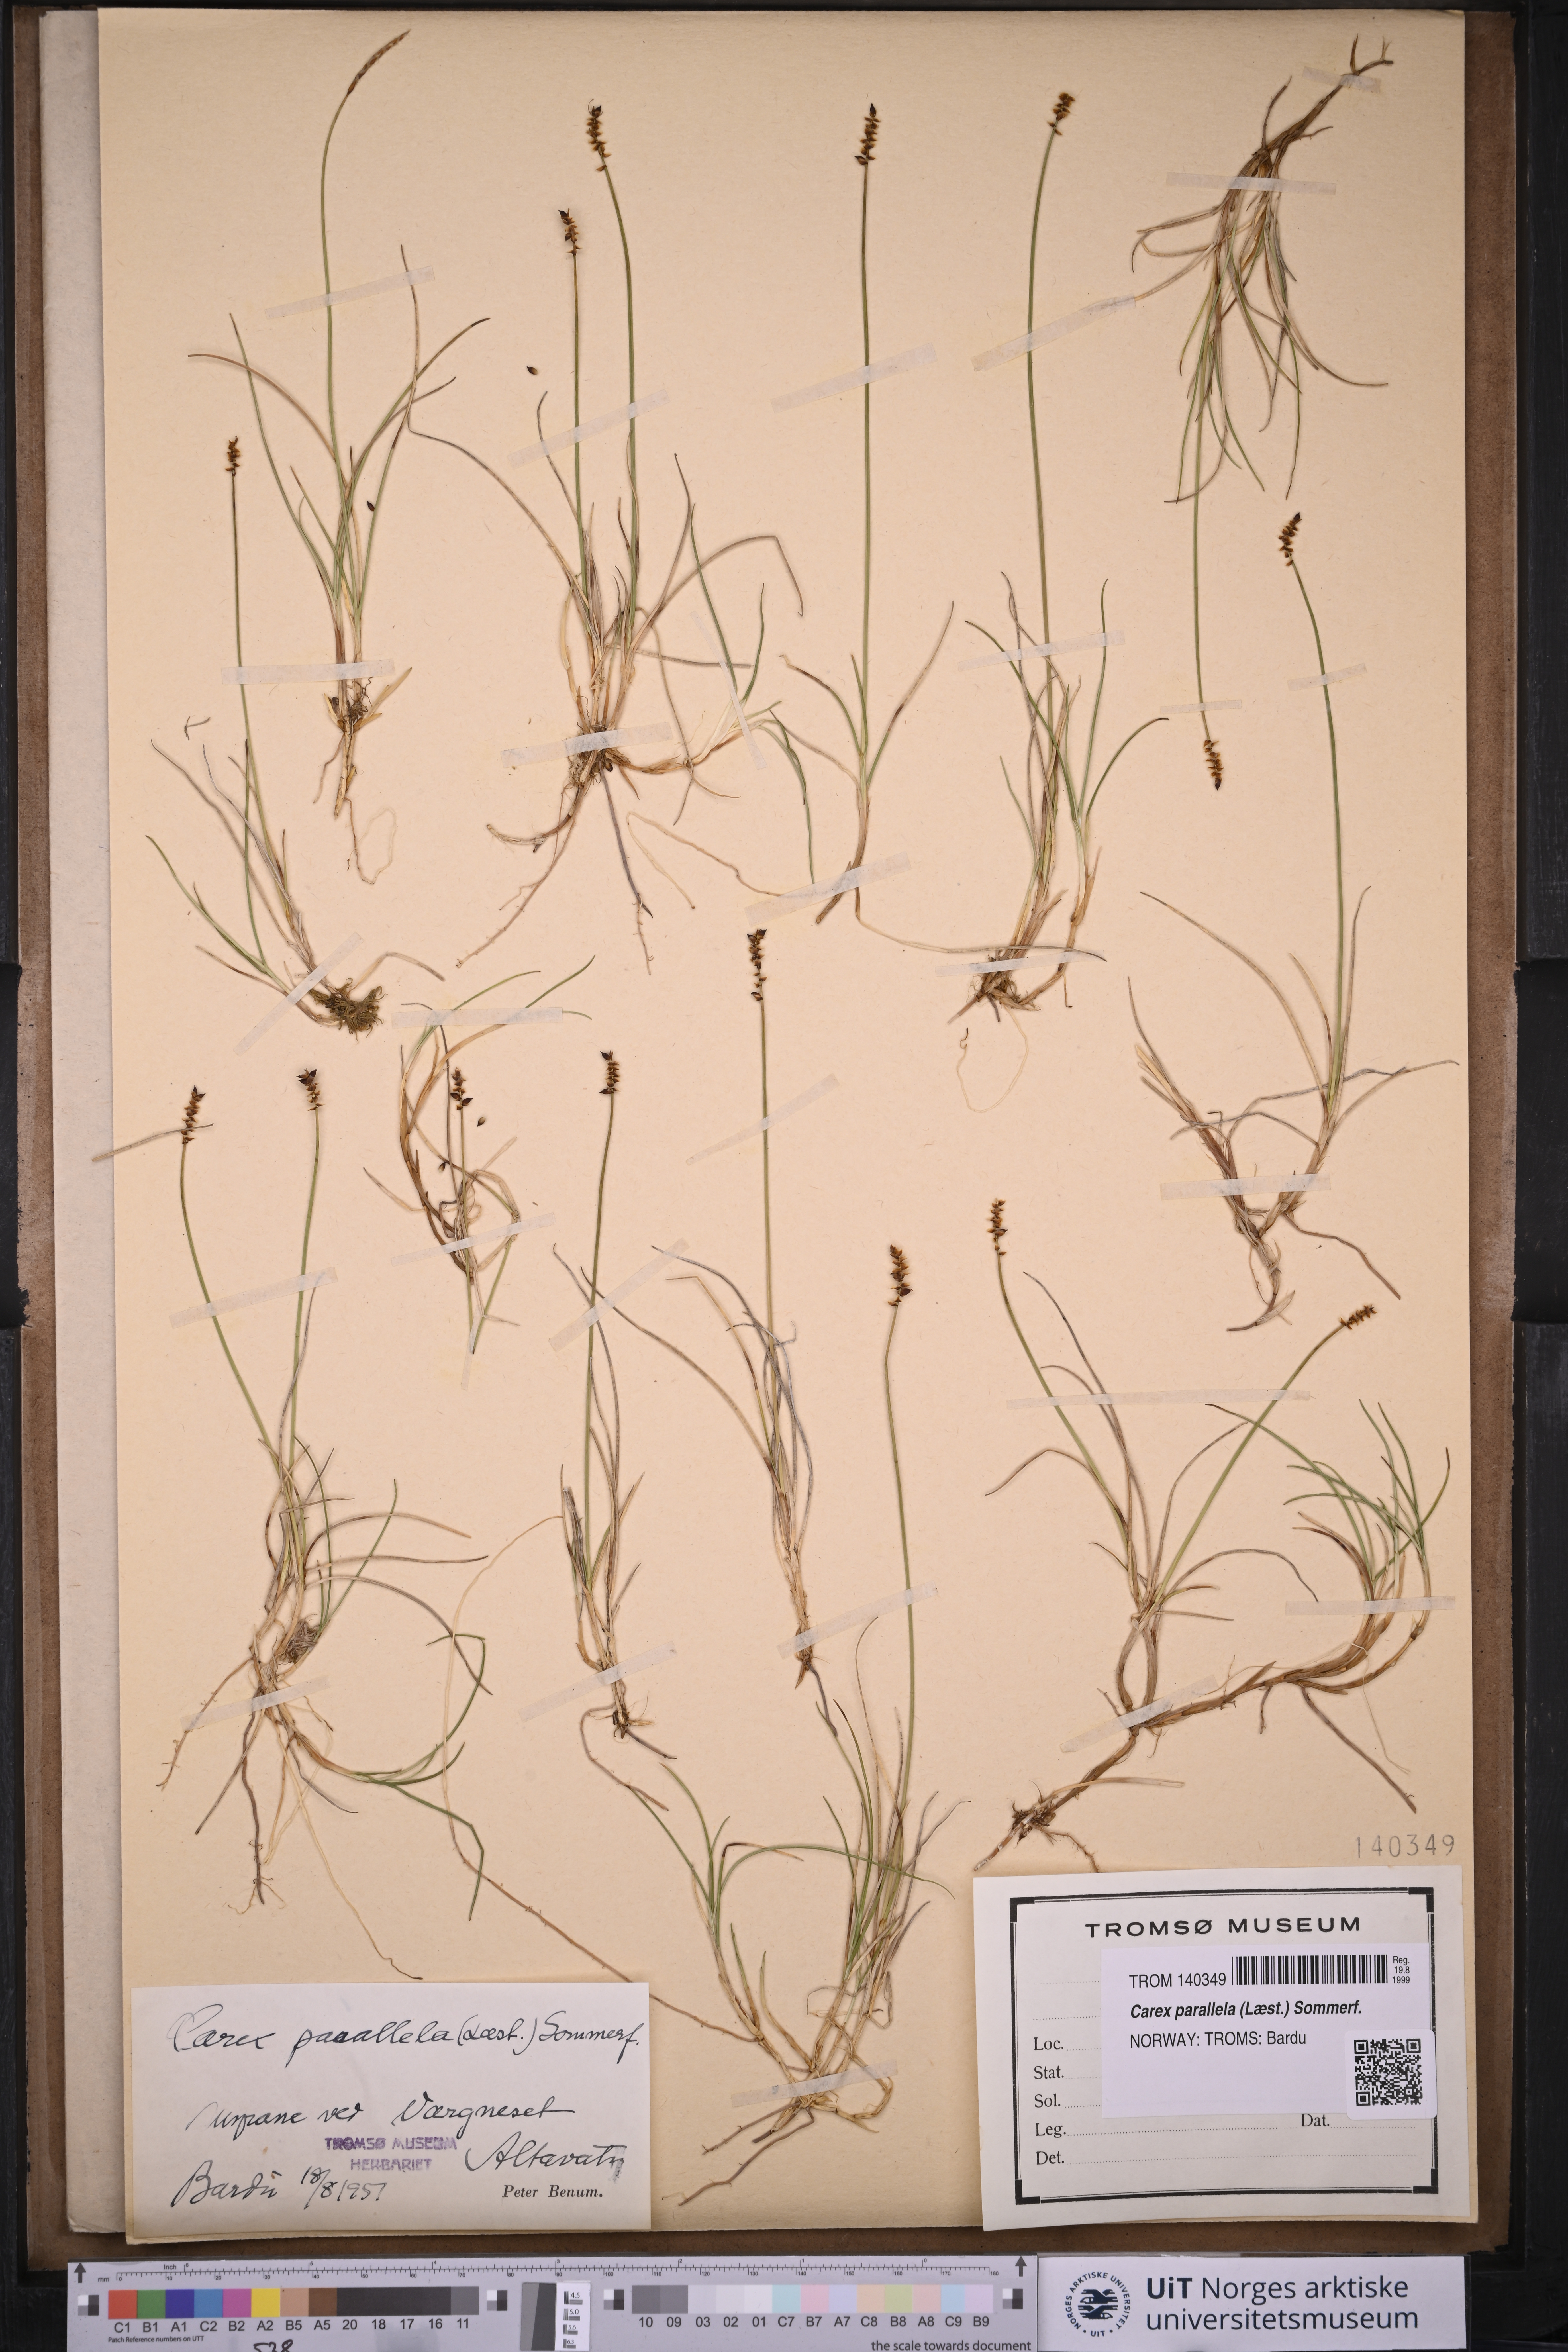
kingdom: Plantae
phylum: Tracheophyta
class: Liliopsida
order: Poales
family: Cyperaceae
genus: Carex
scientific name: Carex parallela
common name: Parallel sedge
